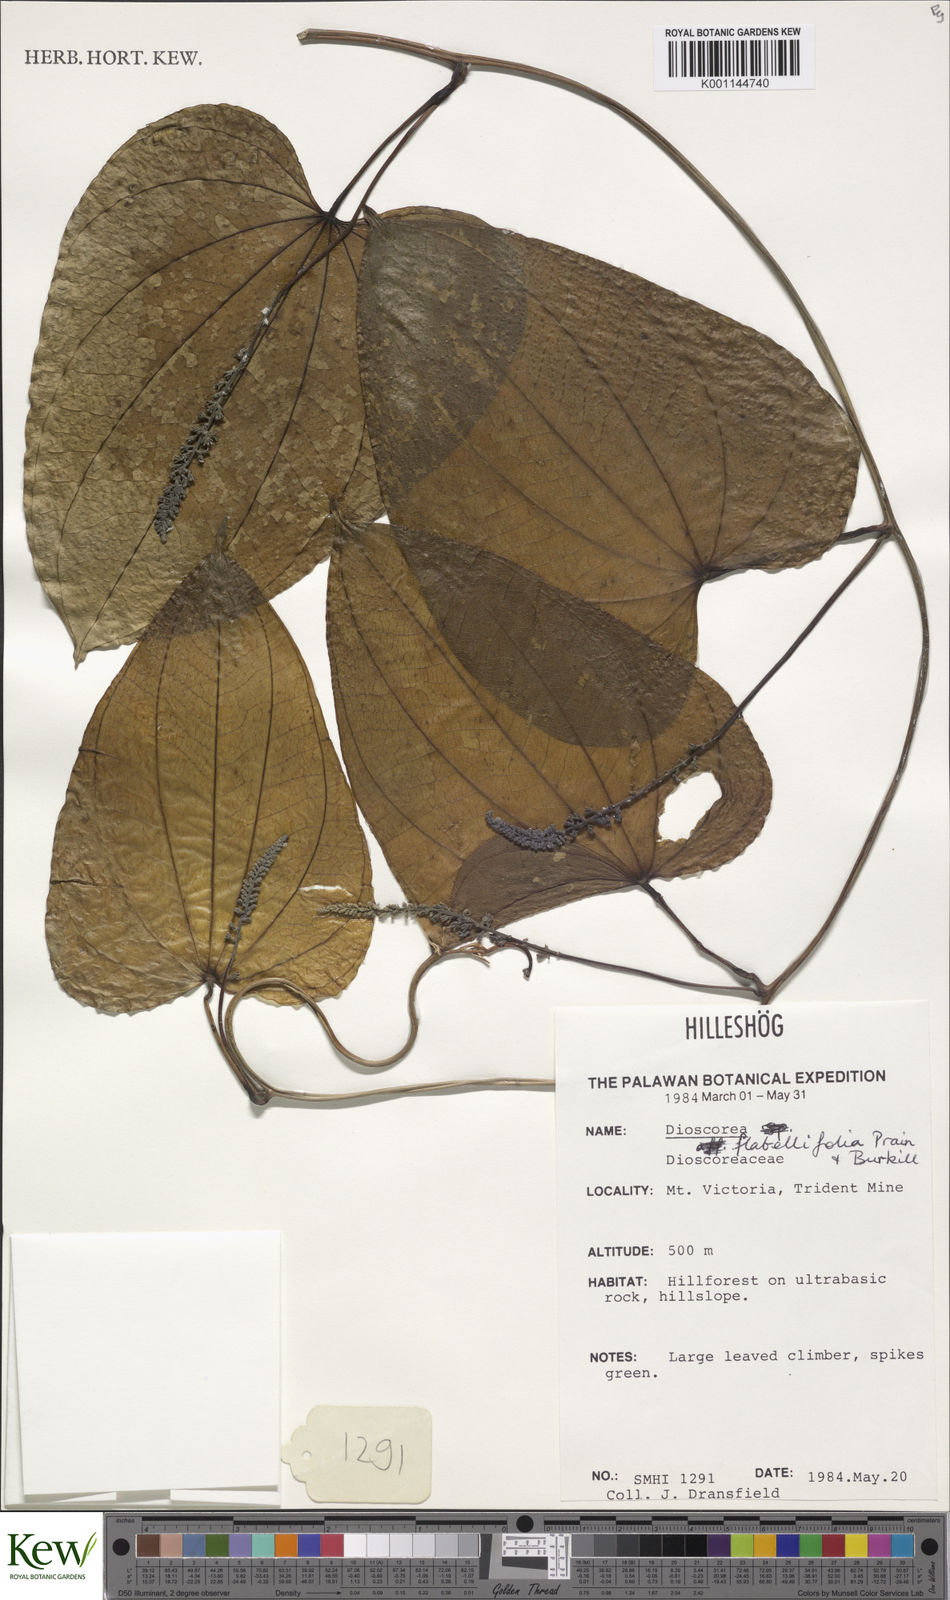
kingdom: Plantae
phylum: Tracheophyta
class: Liliopsida
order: Dioscoreales
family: Dioscoreaceae
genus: Dioscorea
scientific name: Dioscorea flabellifolia
